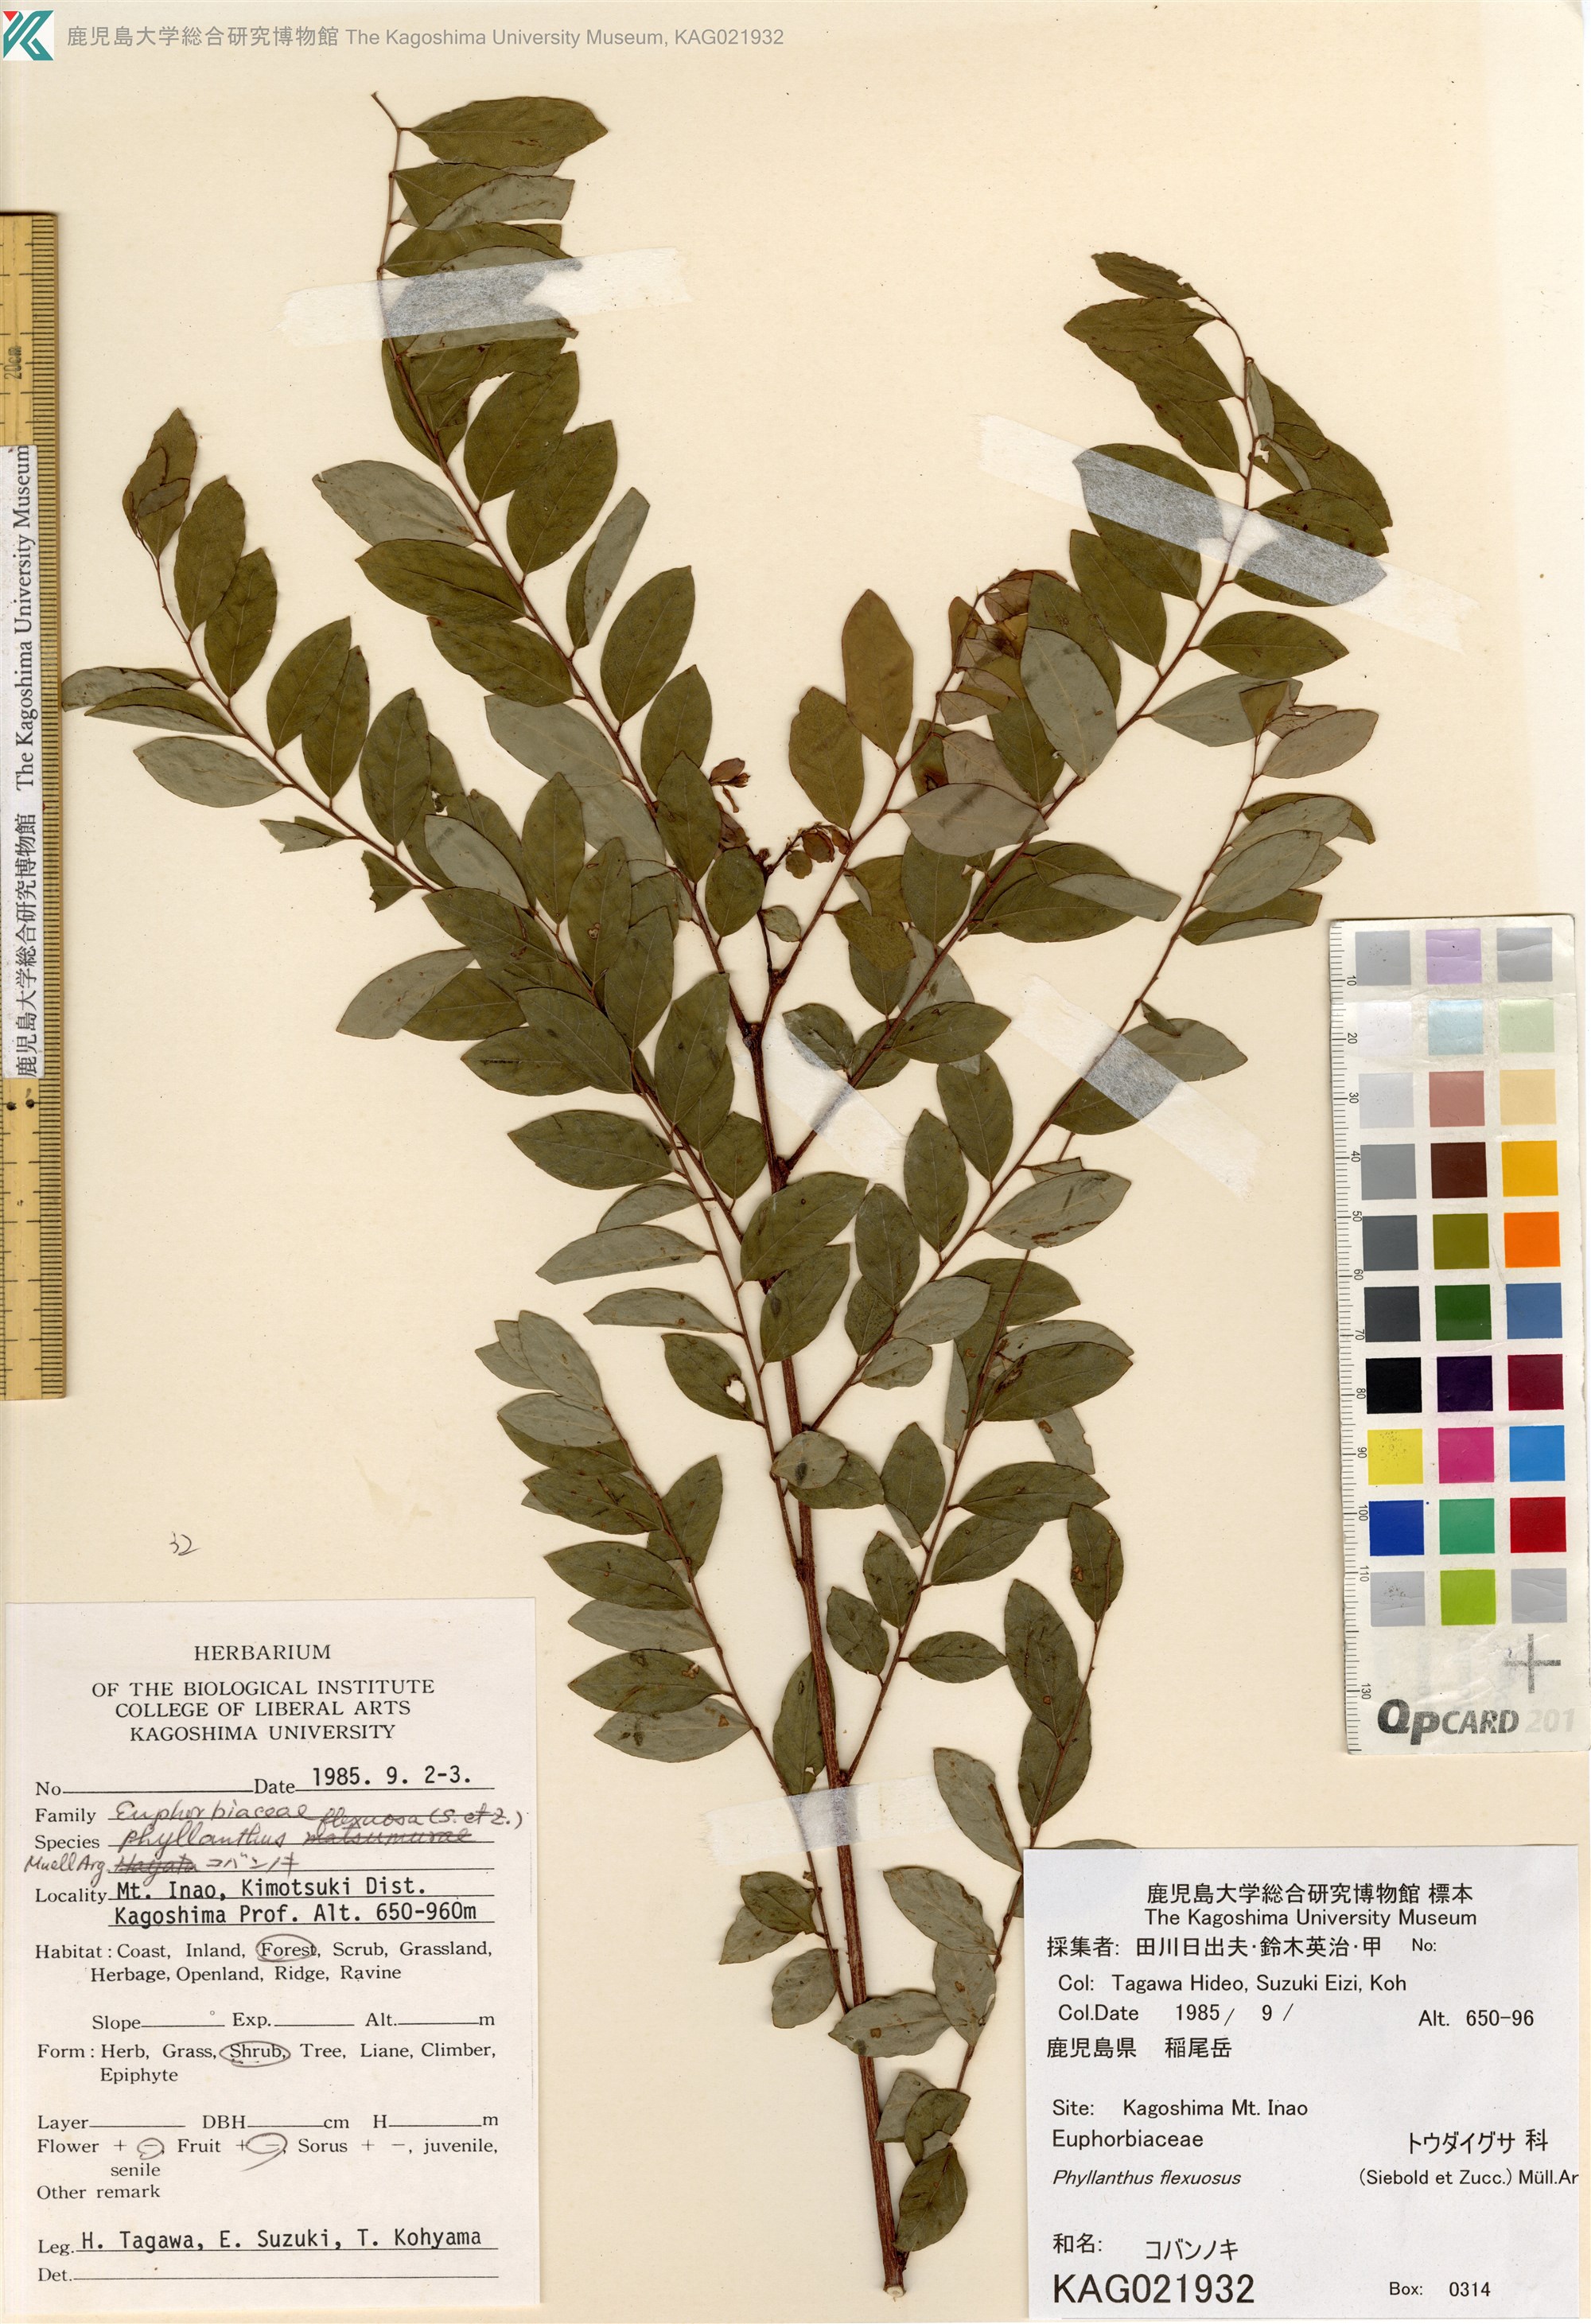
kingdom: Plantae
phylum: Tracheophyta
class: Magnoliopsida
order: Malpighiales
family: Phyllanthaceae
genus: Phyllanthus
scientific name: Phyllanthus flexuosus
